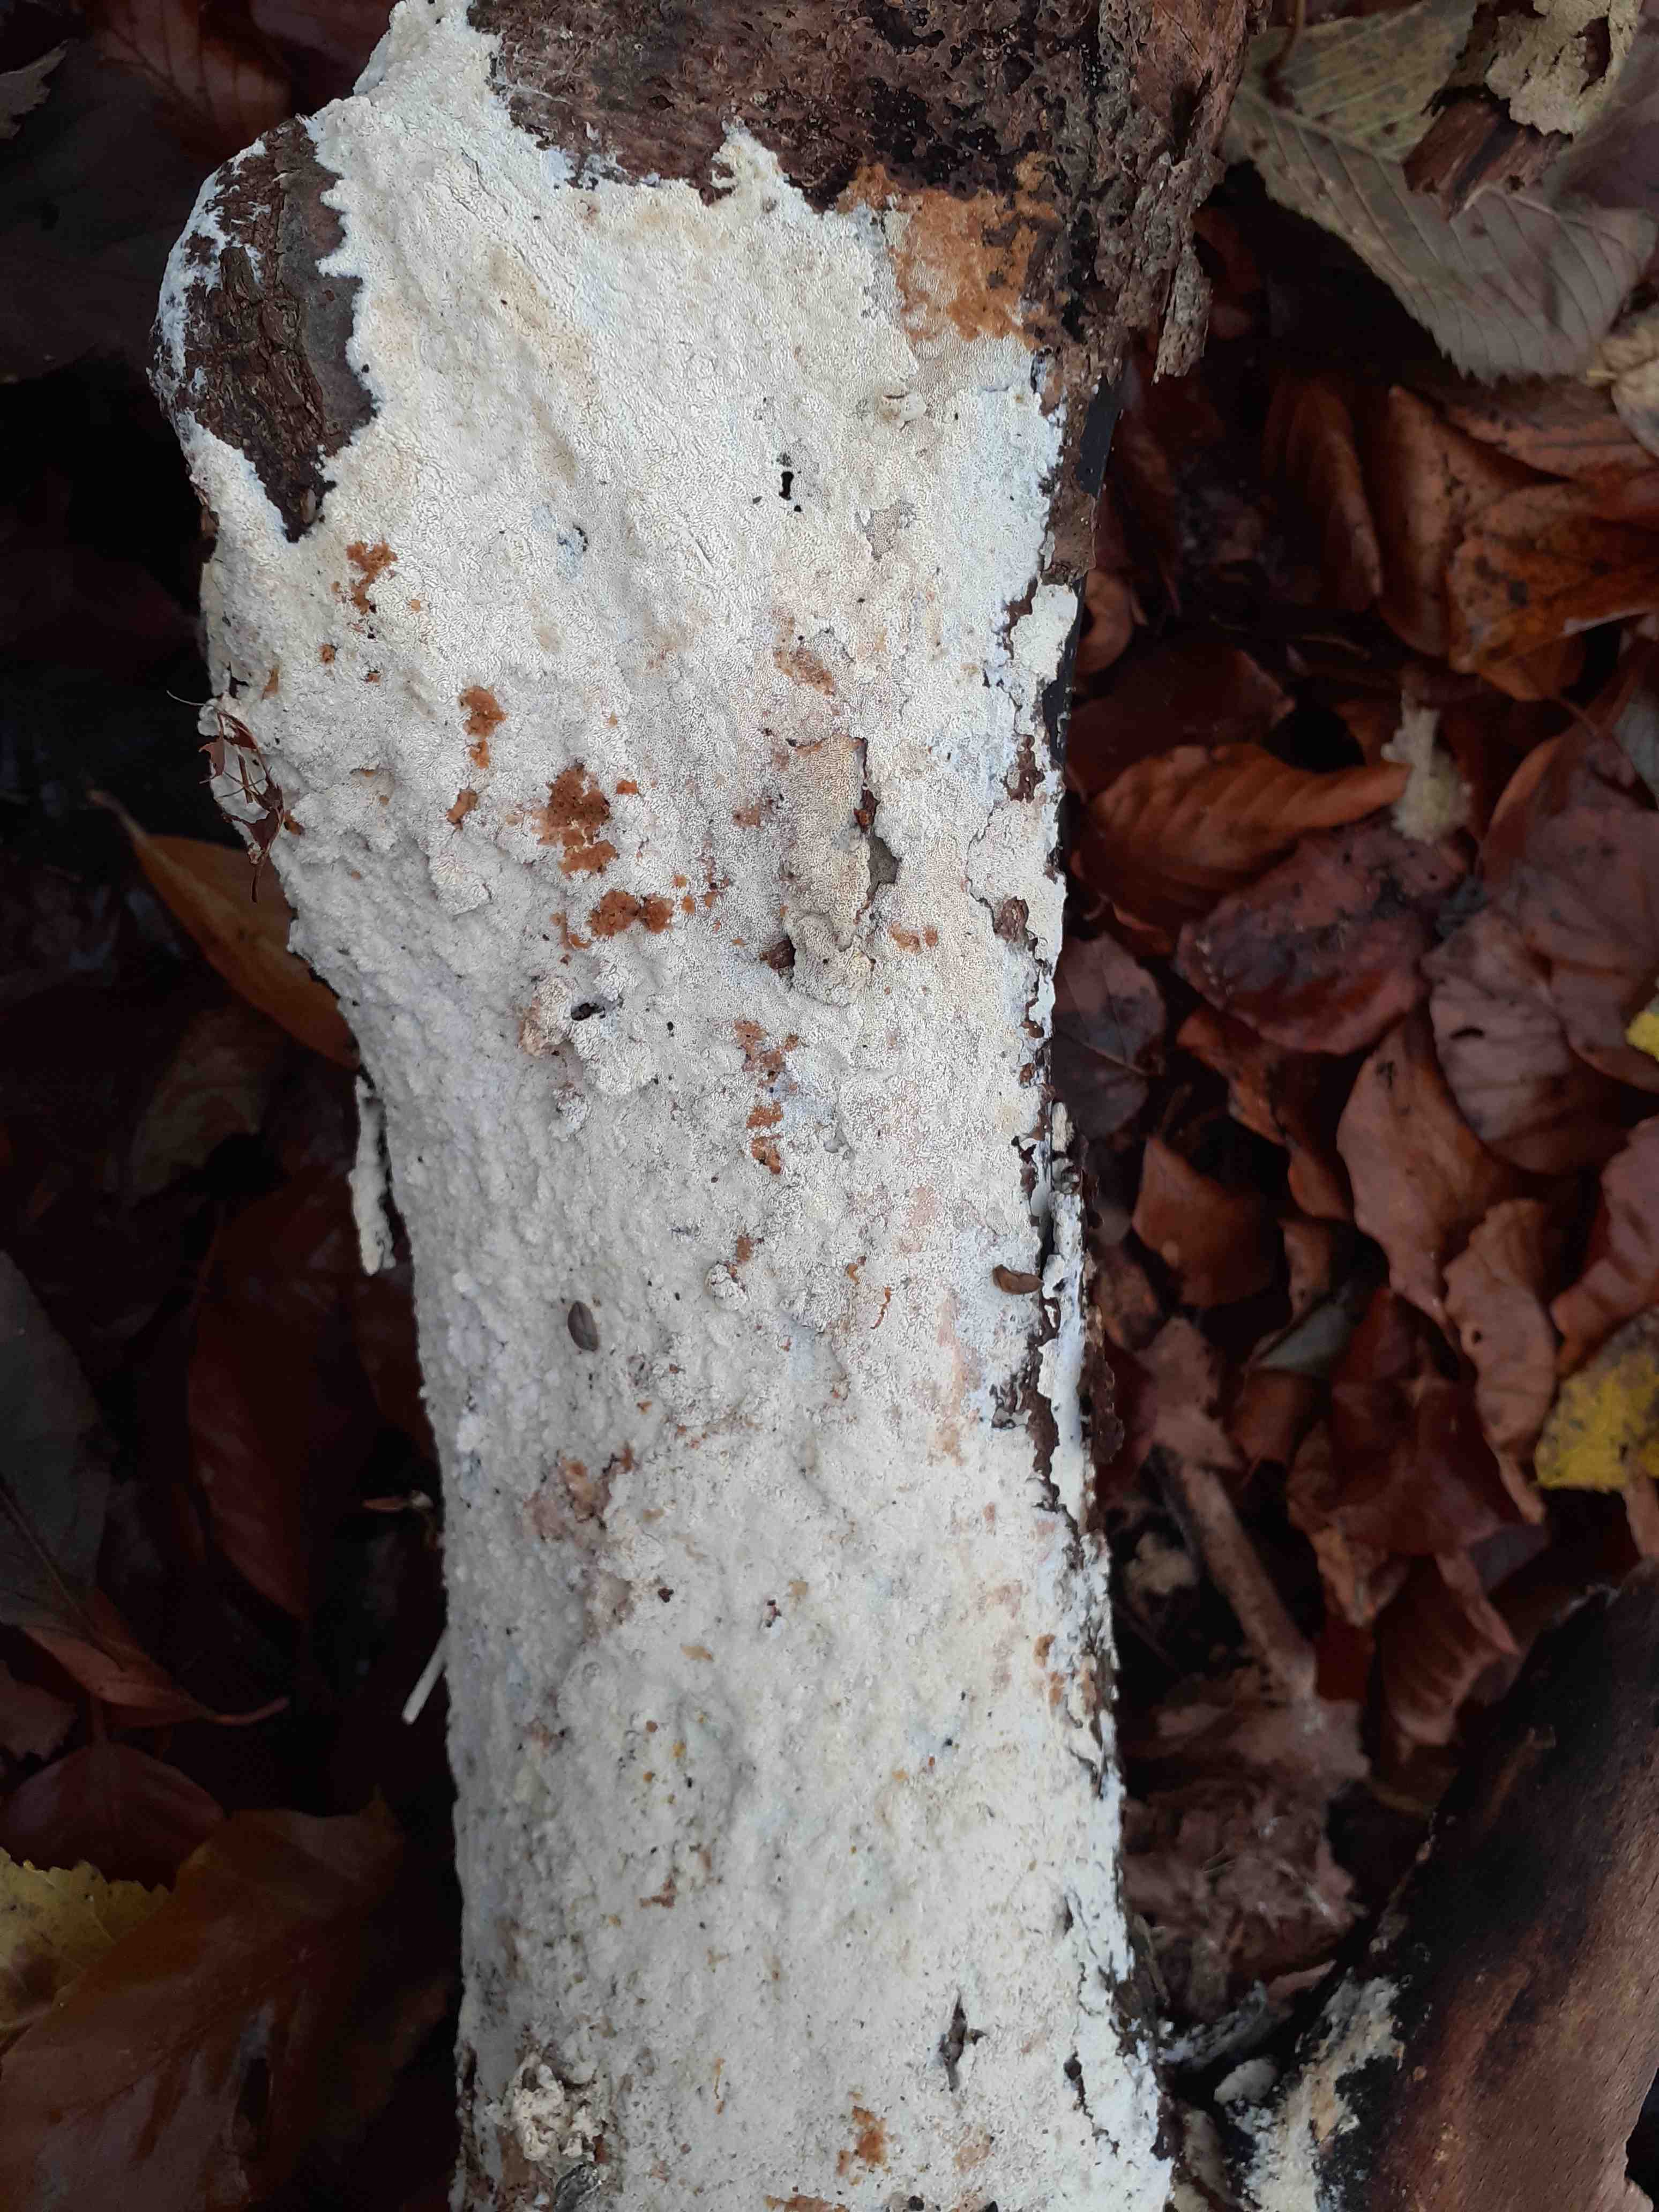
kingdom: Fungi
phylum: Basidiomycota
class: Agaricomycetes
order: Hymenochaetales
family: Schizoporaceae
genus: Schizopora
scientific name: Schizopora paradoxa
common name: hvid tandsvamp
